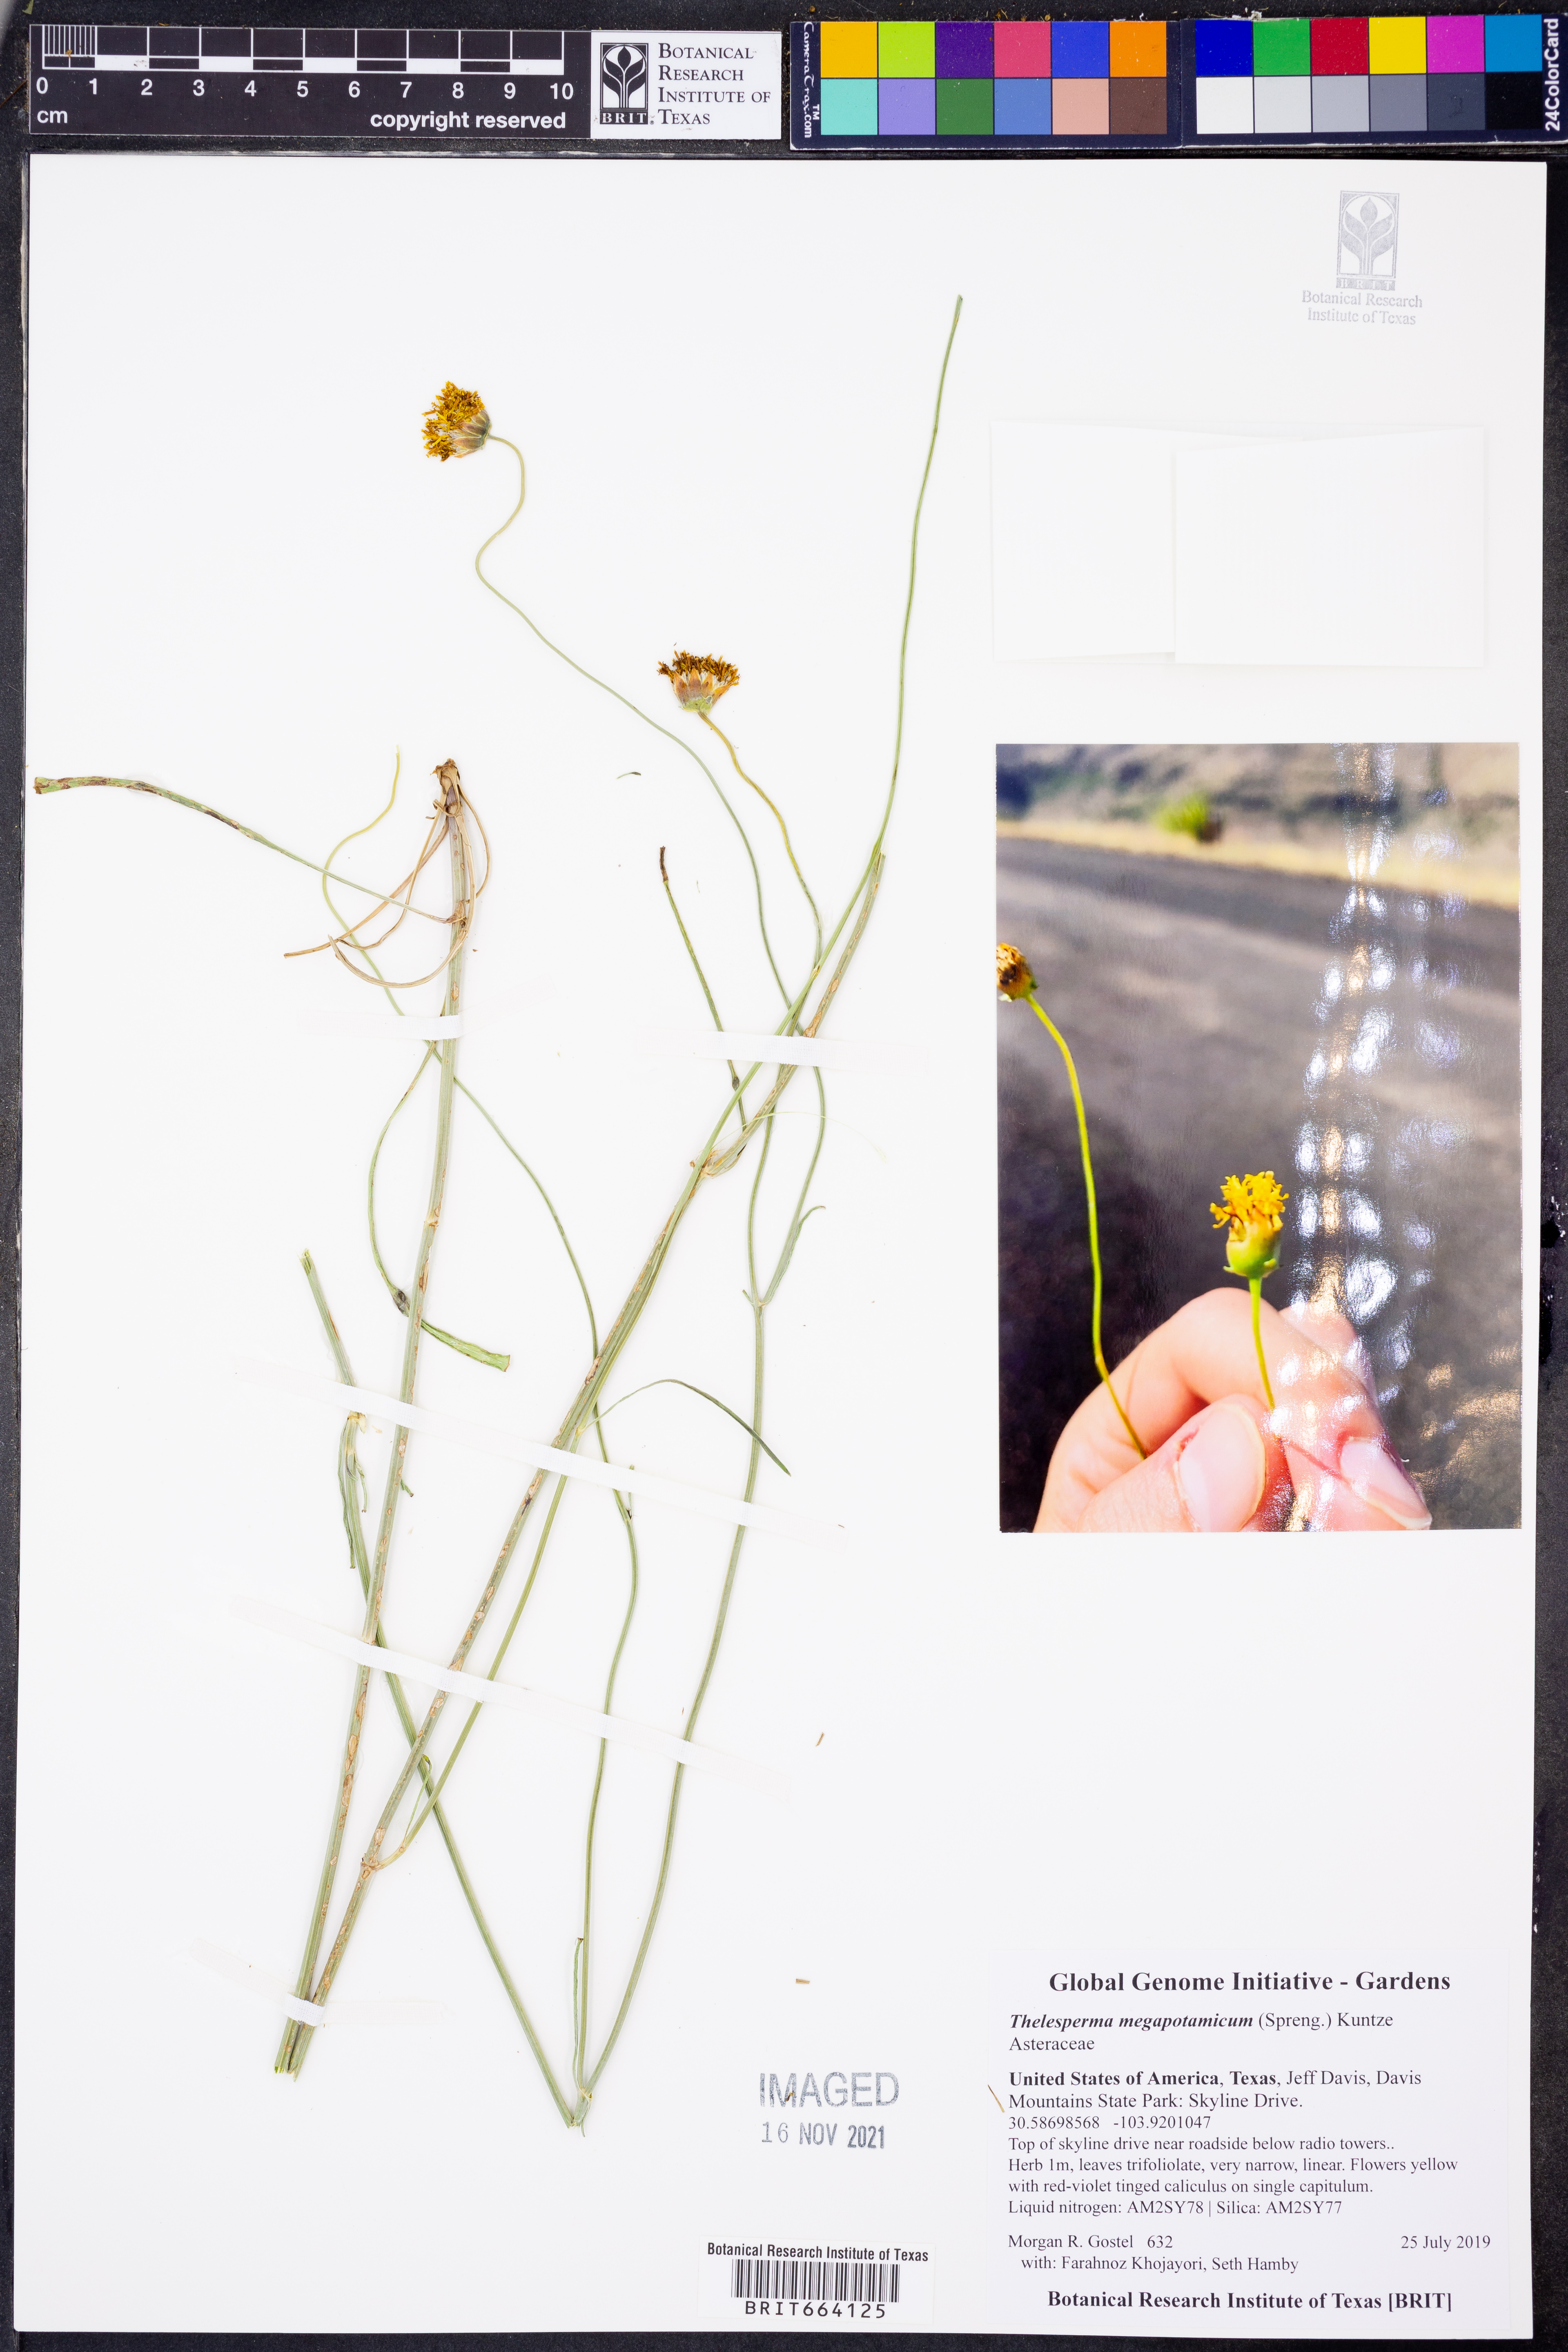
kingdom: Plantae
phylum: Tracheophyta
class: Magnoliopsida
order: Asterales
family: Asteraceae
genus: Thelesperma
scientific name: Thelesperma megapotamicum
